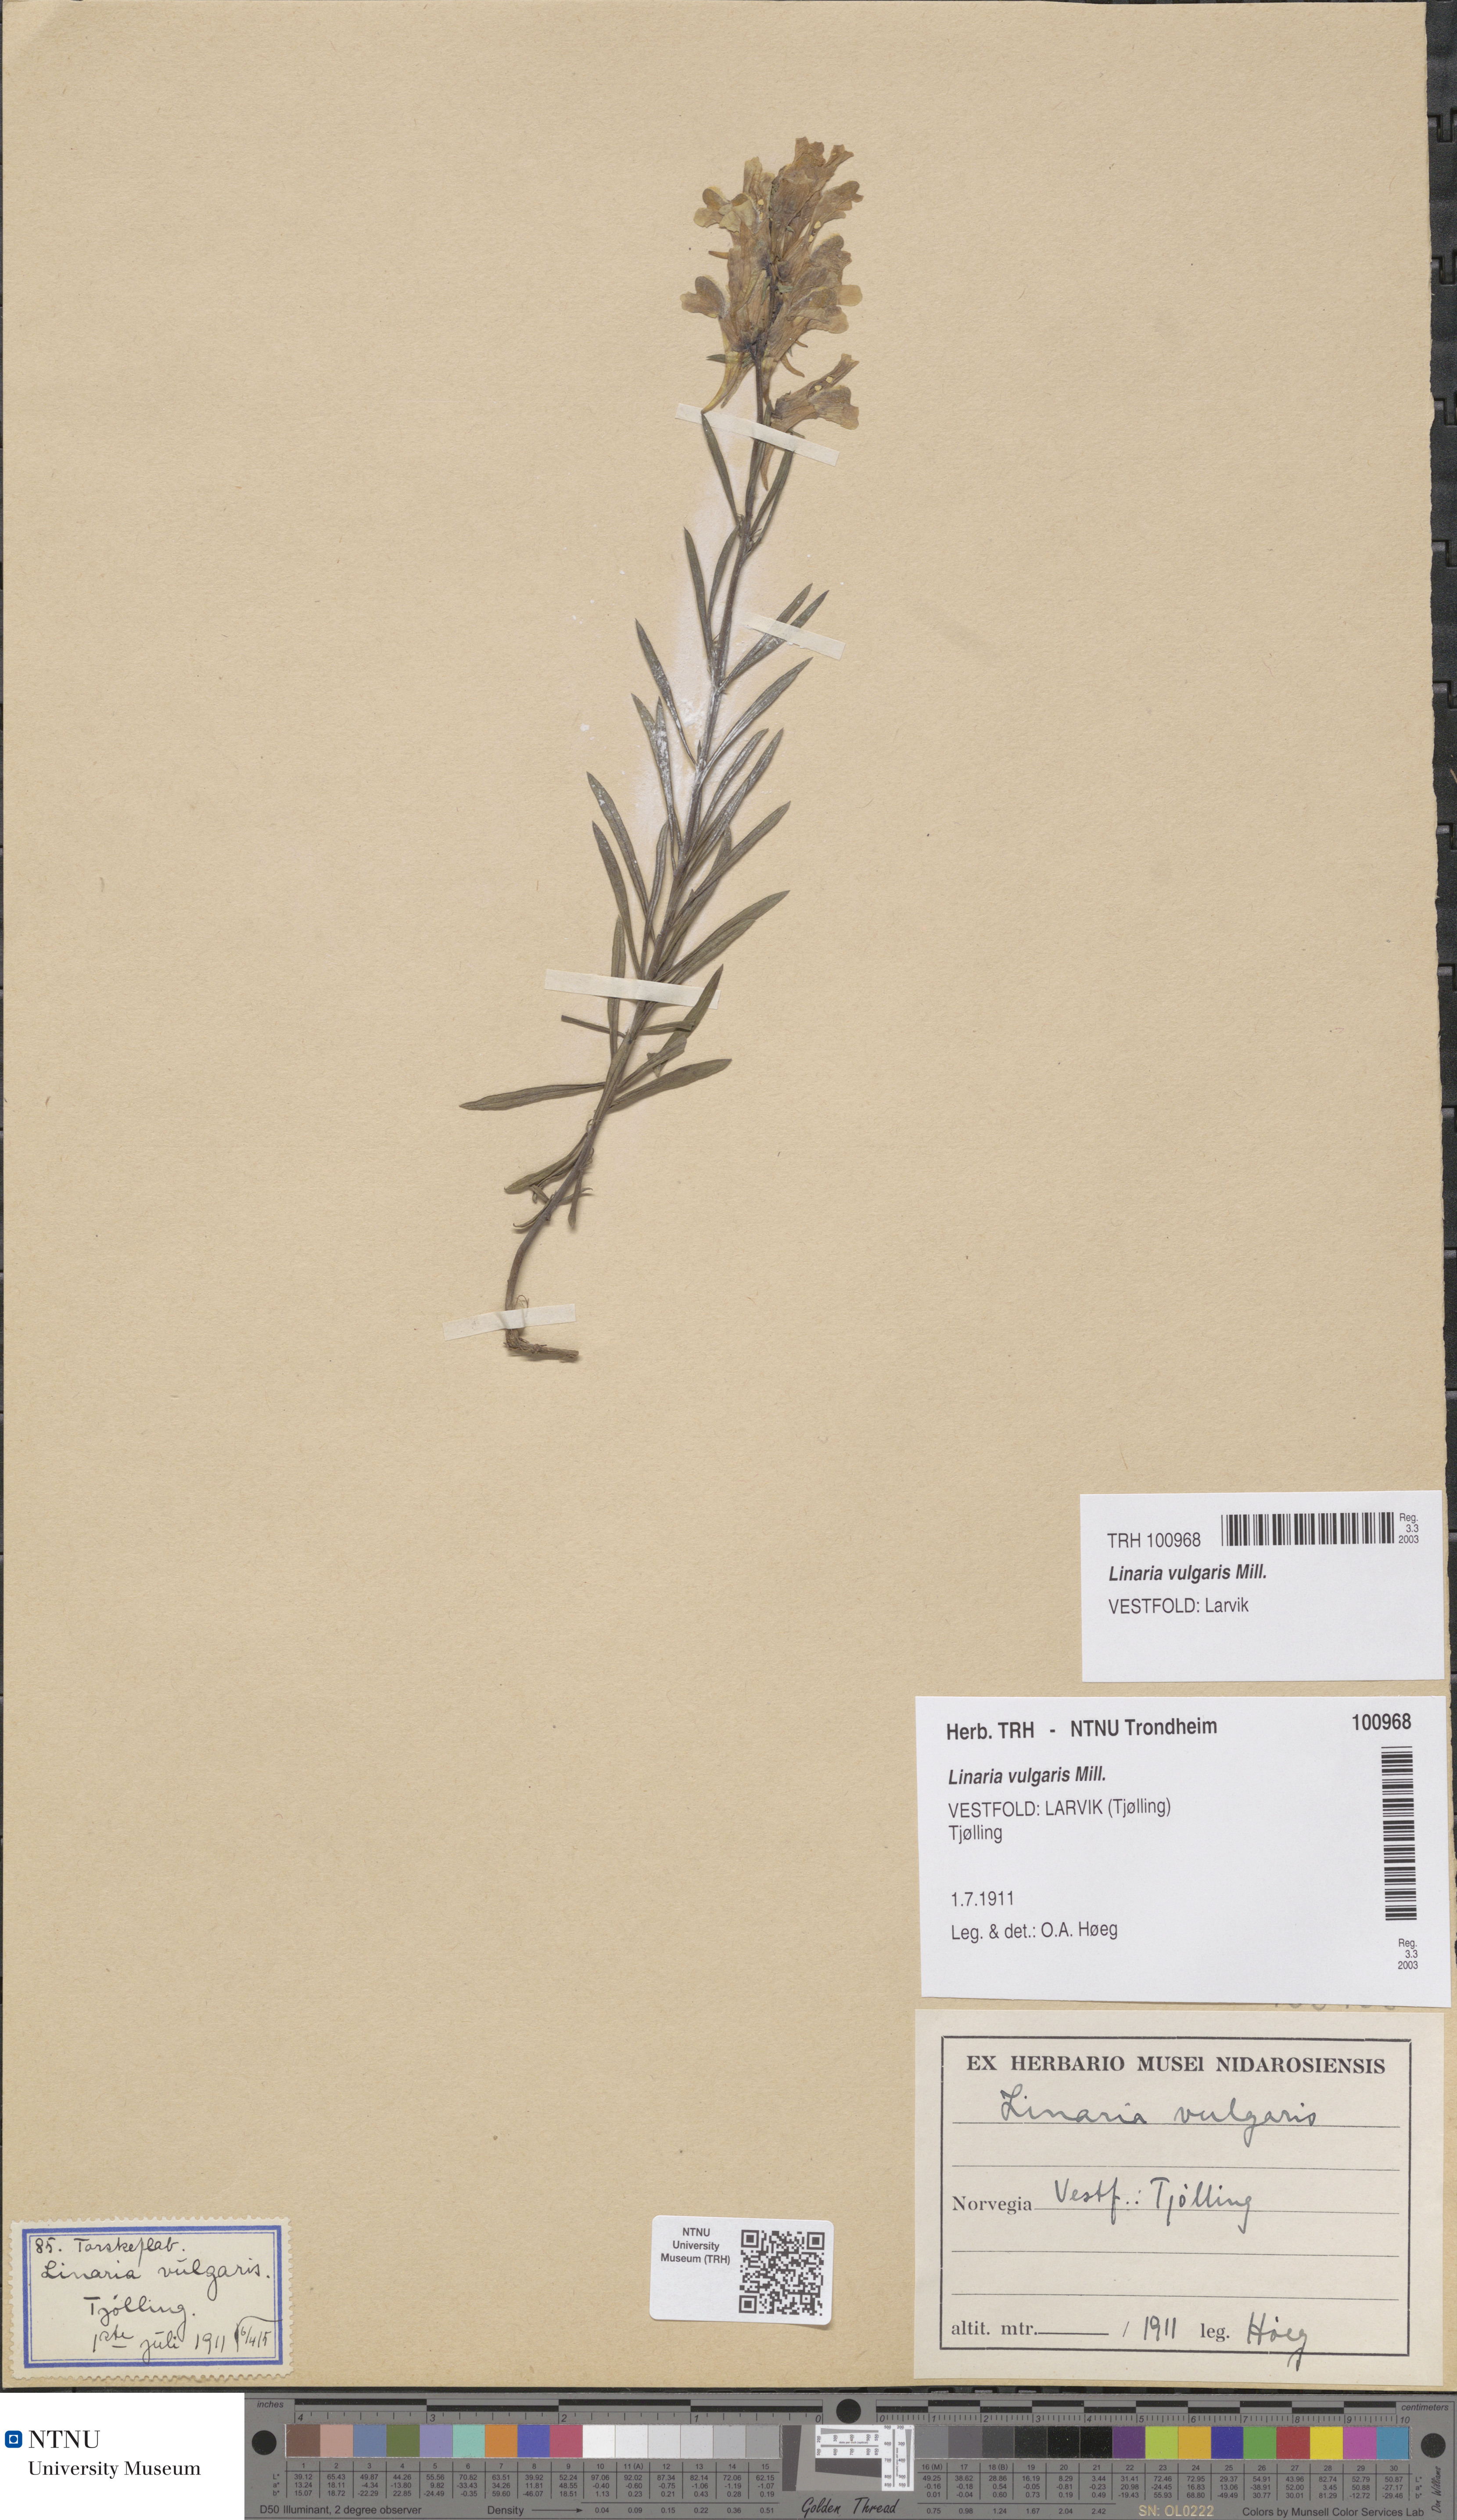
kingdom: Plantae
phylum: Tracheophyta
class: Magnoliopsida
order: Lamiales
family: Plantaginaceae
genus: Linaria
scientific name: Linaria vulgaris
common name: Butter and eggs
